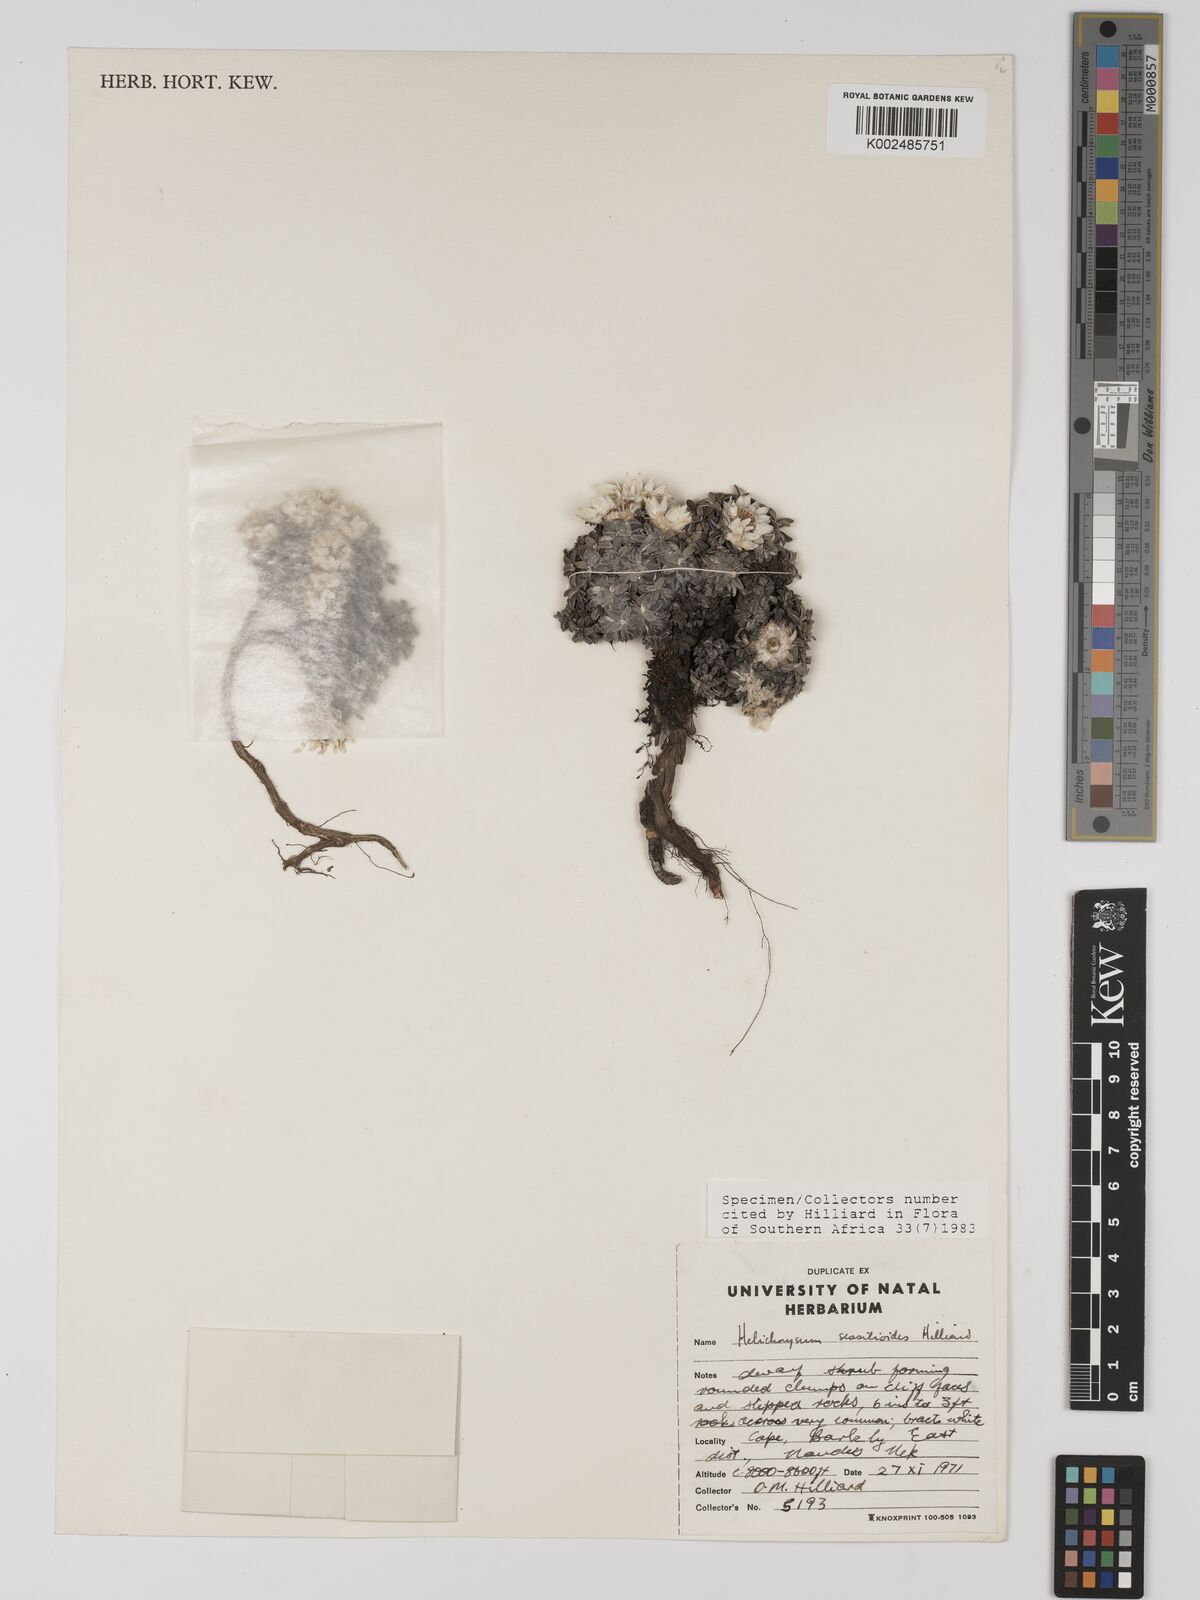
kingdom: Plantae
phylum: Tracheophyta
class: Magnoliopsida
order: Asterales
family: Asteraceae
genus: Helichrysum
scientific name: Helichrysum sessilioides
